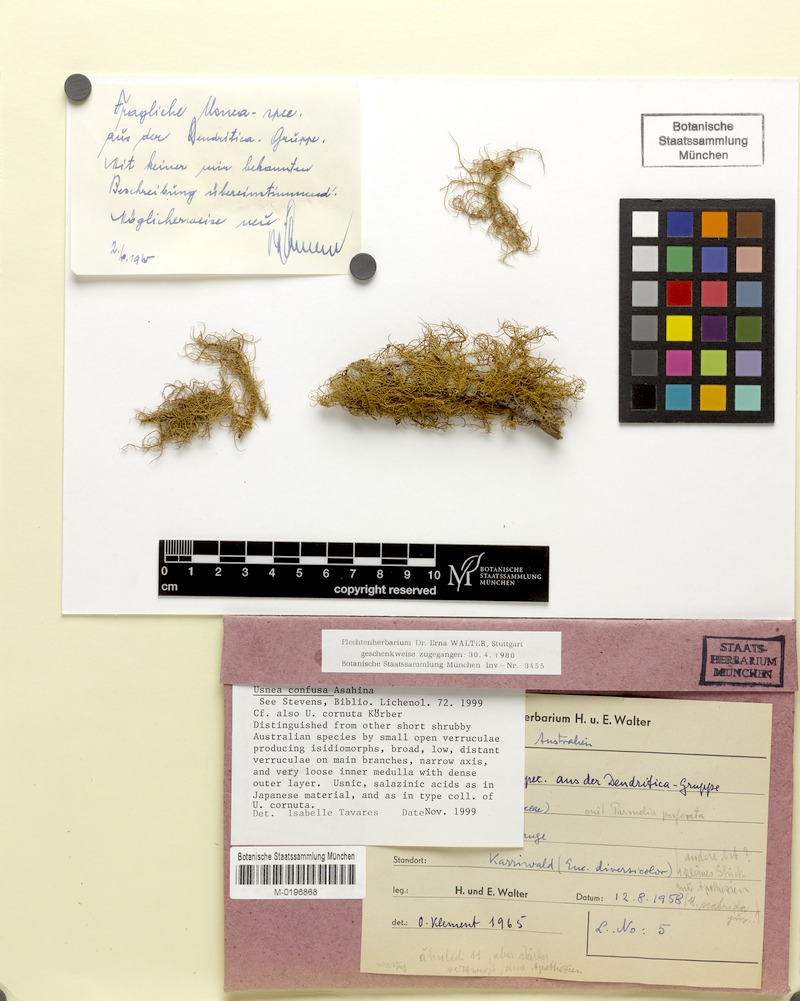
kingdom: Fungi
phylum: Ascomycota
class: Lecanoromycetes
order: Lecanorales
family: Parmeliaceae
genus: Usnea
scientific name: Usnea cornuta
